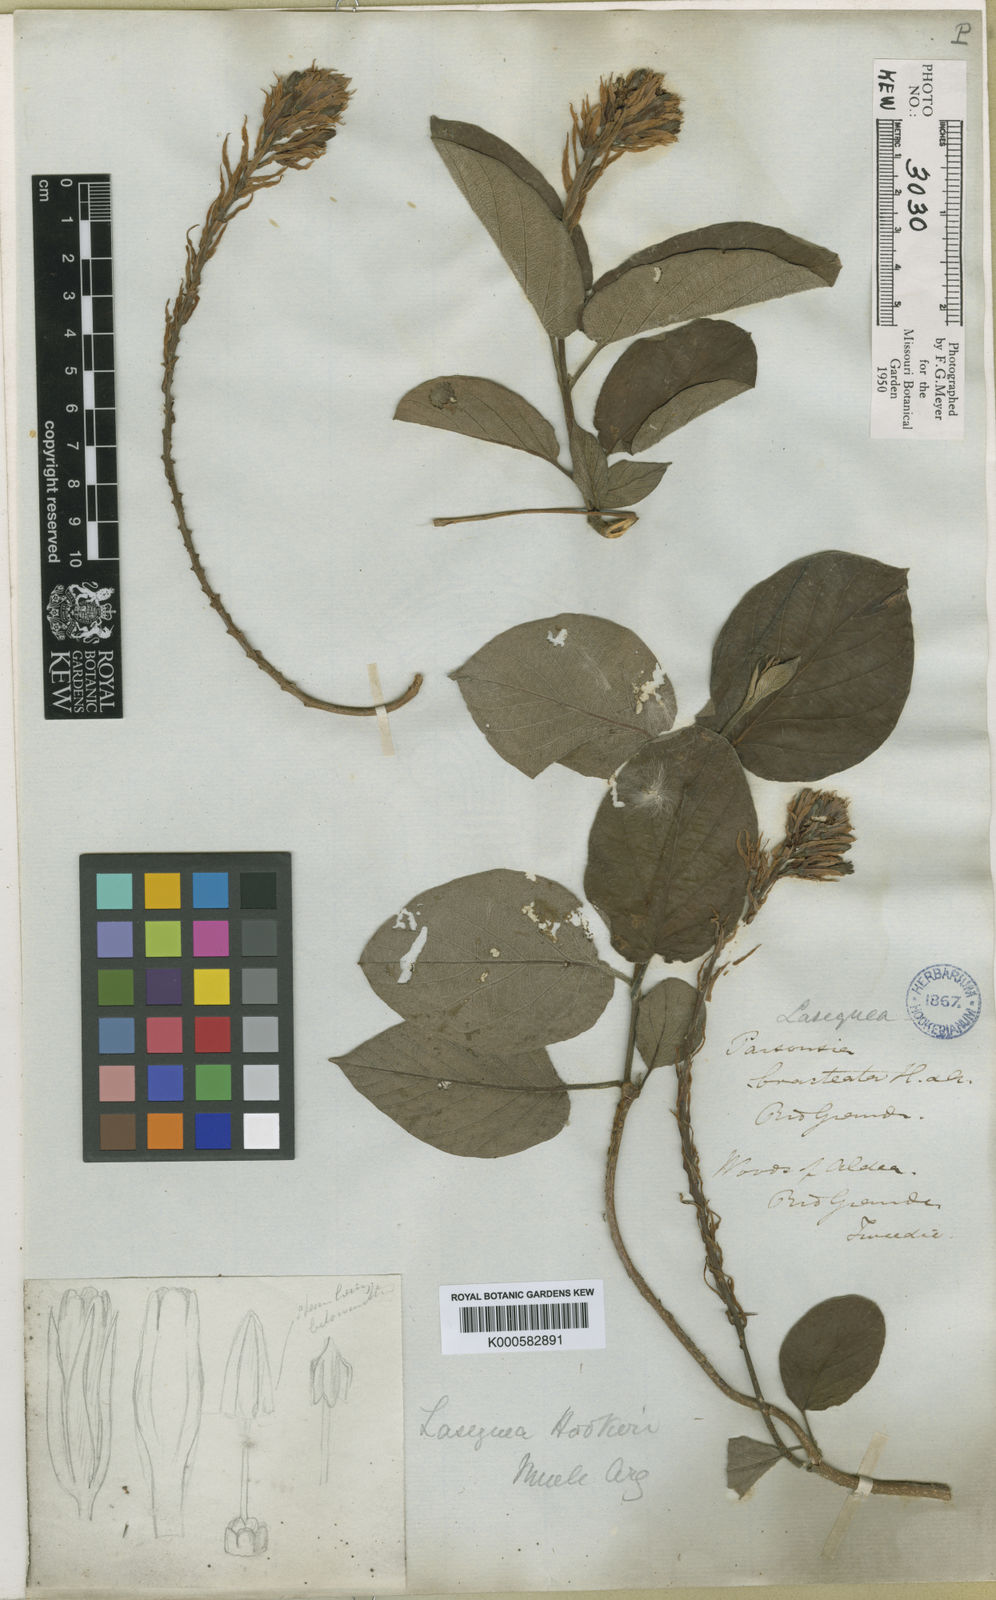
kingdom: Plantae
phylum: Tracheophyta
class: Magnoliopsida
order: Gentianales
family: Apocynaceae
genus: Mandevilla
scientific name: Mandevilla pentlandiana
